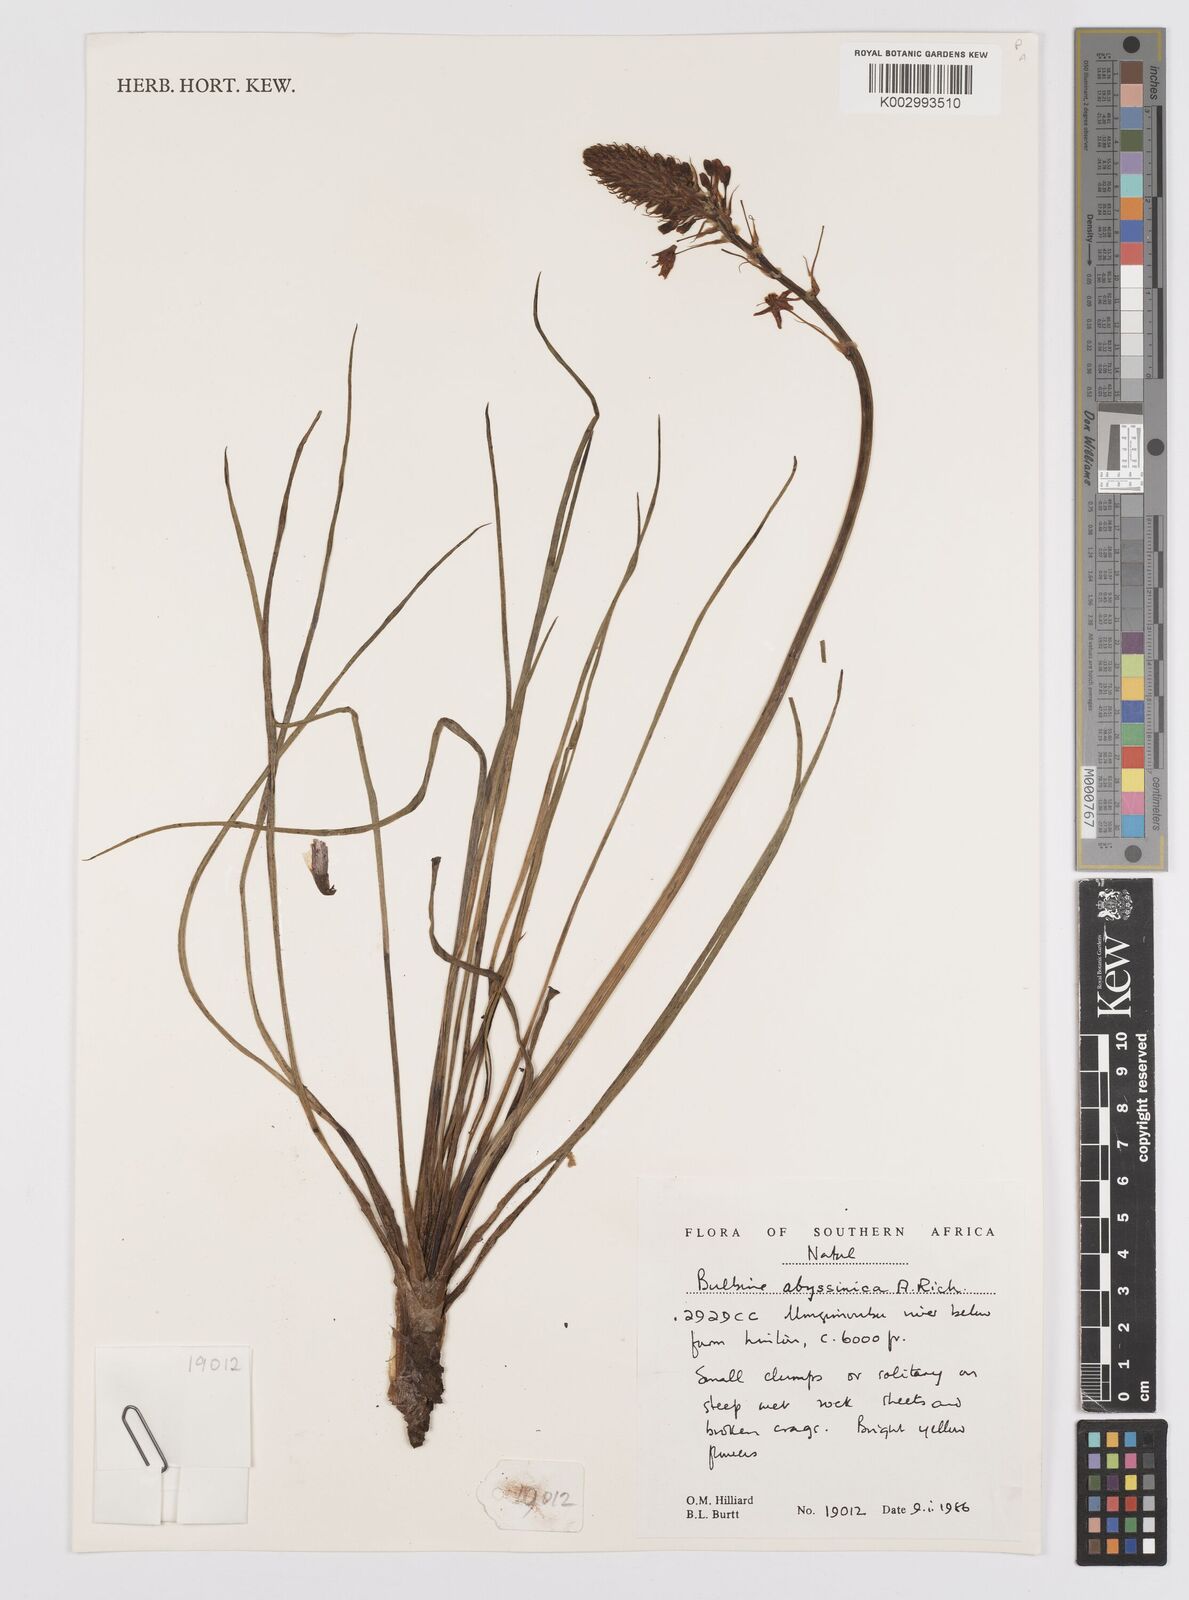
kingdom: Plantae
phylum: Tracheophyta
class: Liliopsida
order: Asparagales
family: Asphodelaceae
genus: Bulbine
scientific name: Bulbine abyssinica
